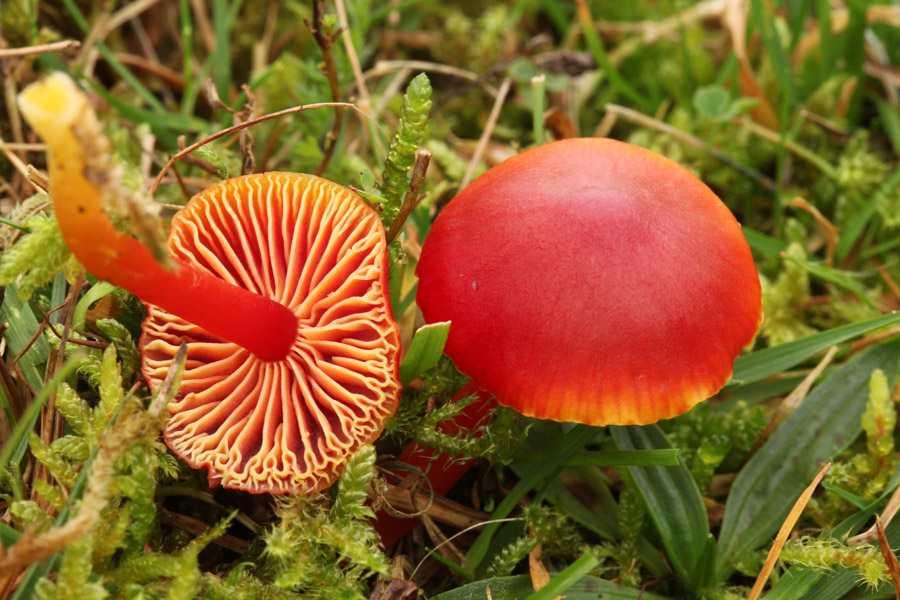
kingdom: Fungi
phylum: Basidiomycota
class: Agaricomycetes
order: Agaricales
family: Hygrophoraceae
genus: Hygrocybe
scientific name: Hygrocybe coccinea
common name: cinnober-vokshat
